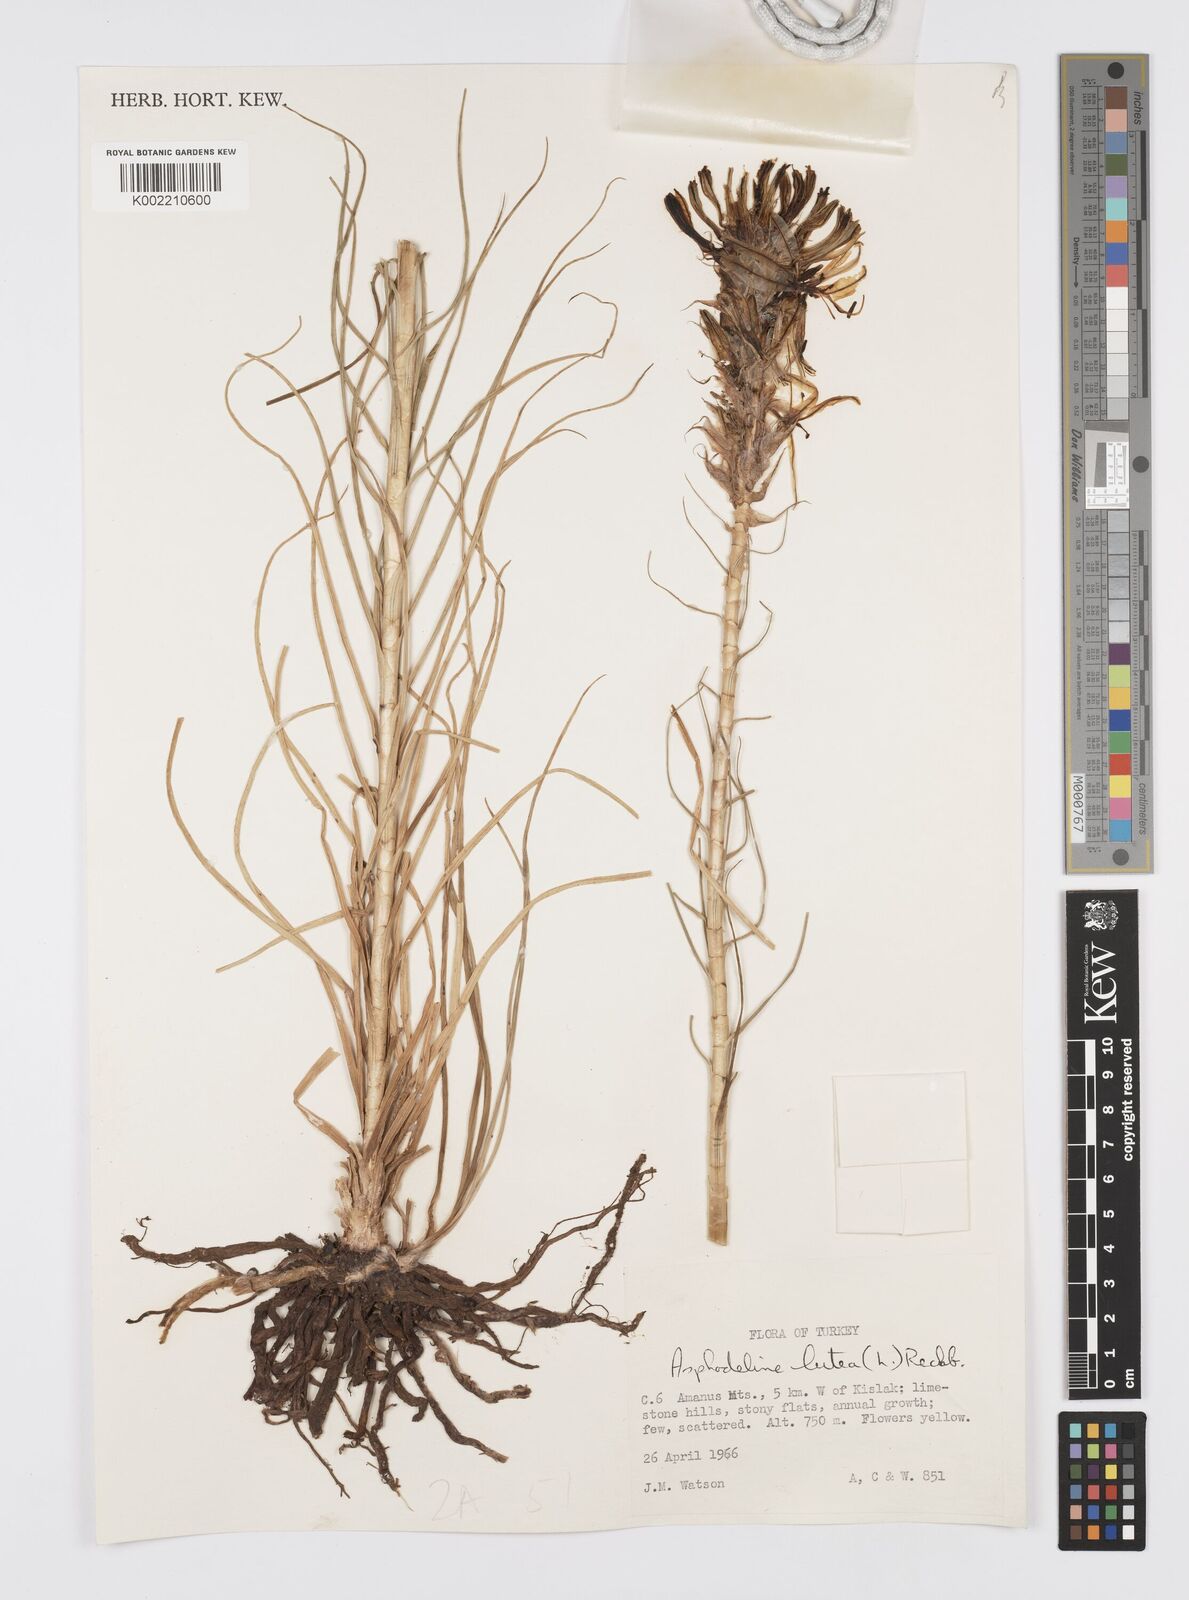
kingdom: Plantae
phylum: Tracheophyta
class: Liliopsida
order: Asparagales
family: Asphodelaceae
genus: Asphodeline
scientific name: Asphodeline lutea
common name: Yellow asphodel
